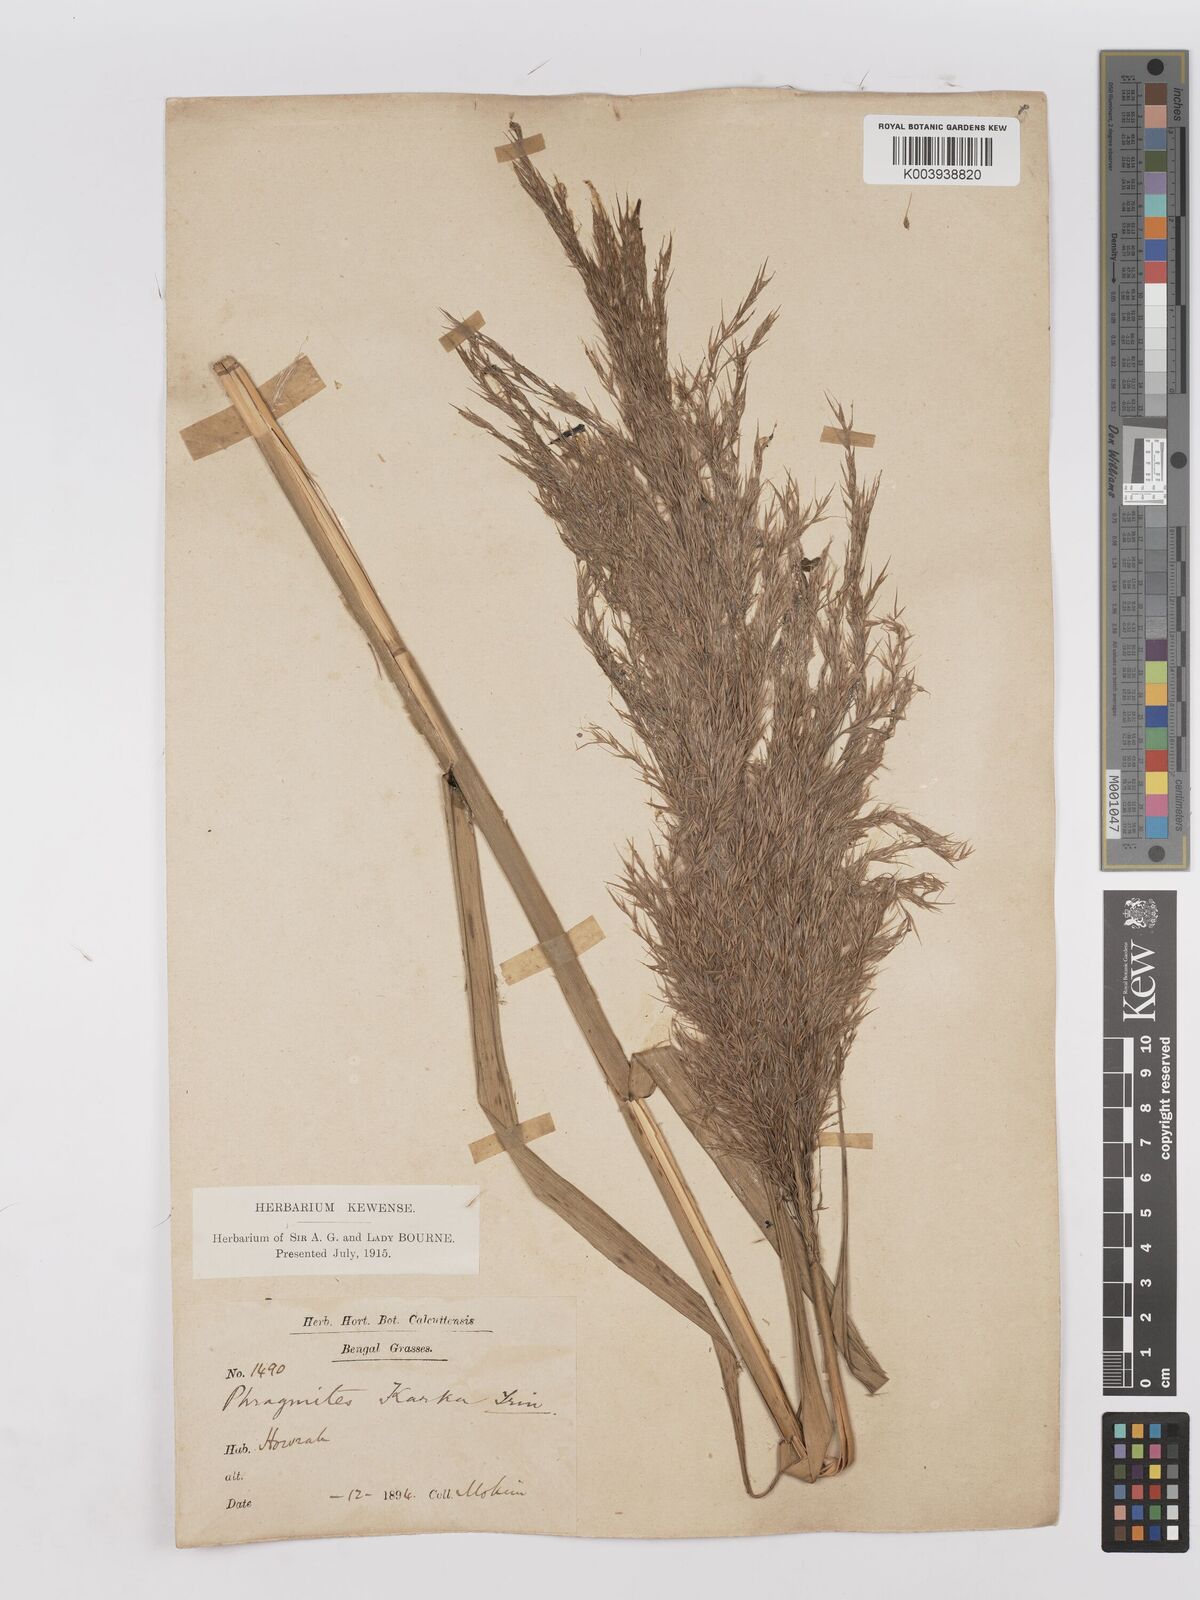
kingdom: Plantae
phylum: Tracheophyta
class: Liliopsida
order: Poales
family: Poaceae
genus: Phragmites
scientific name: Phragmites karka
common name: Tropical reed
